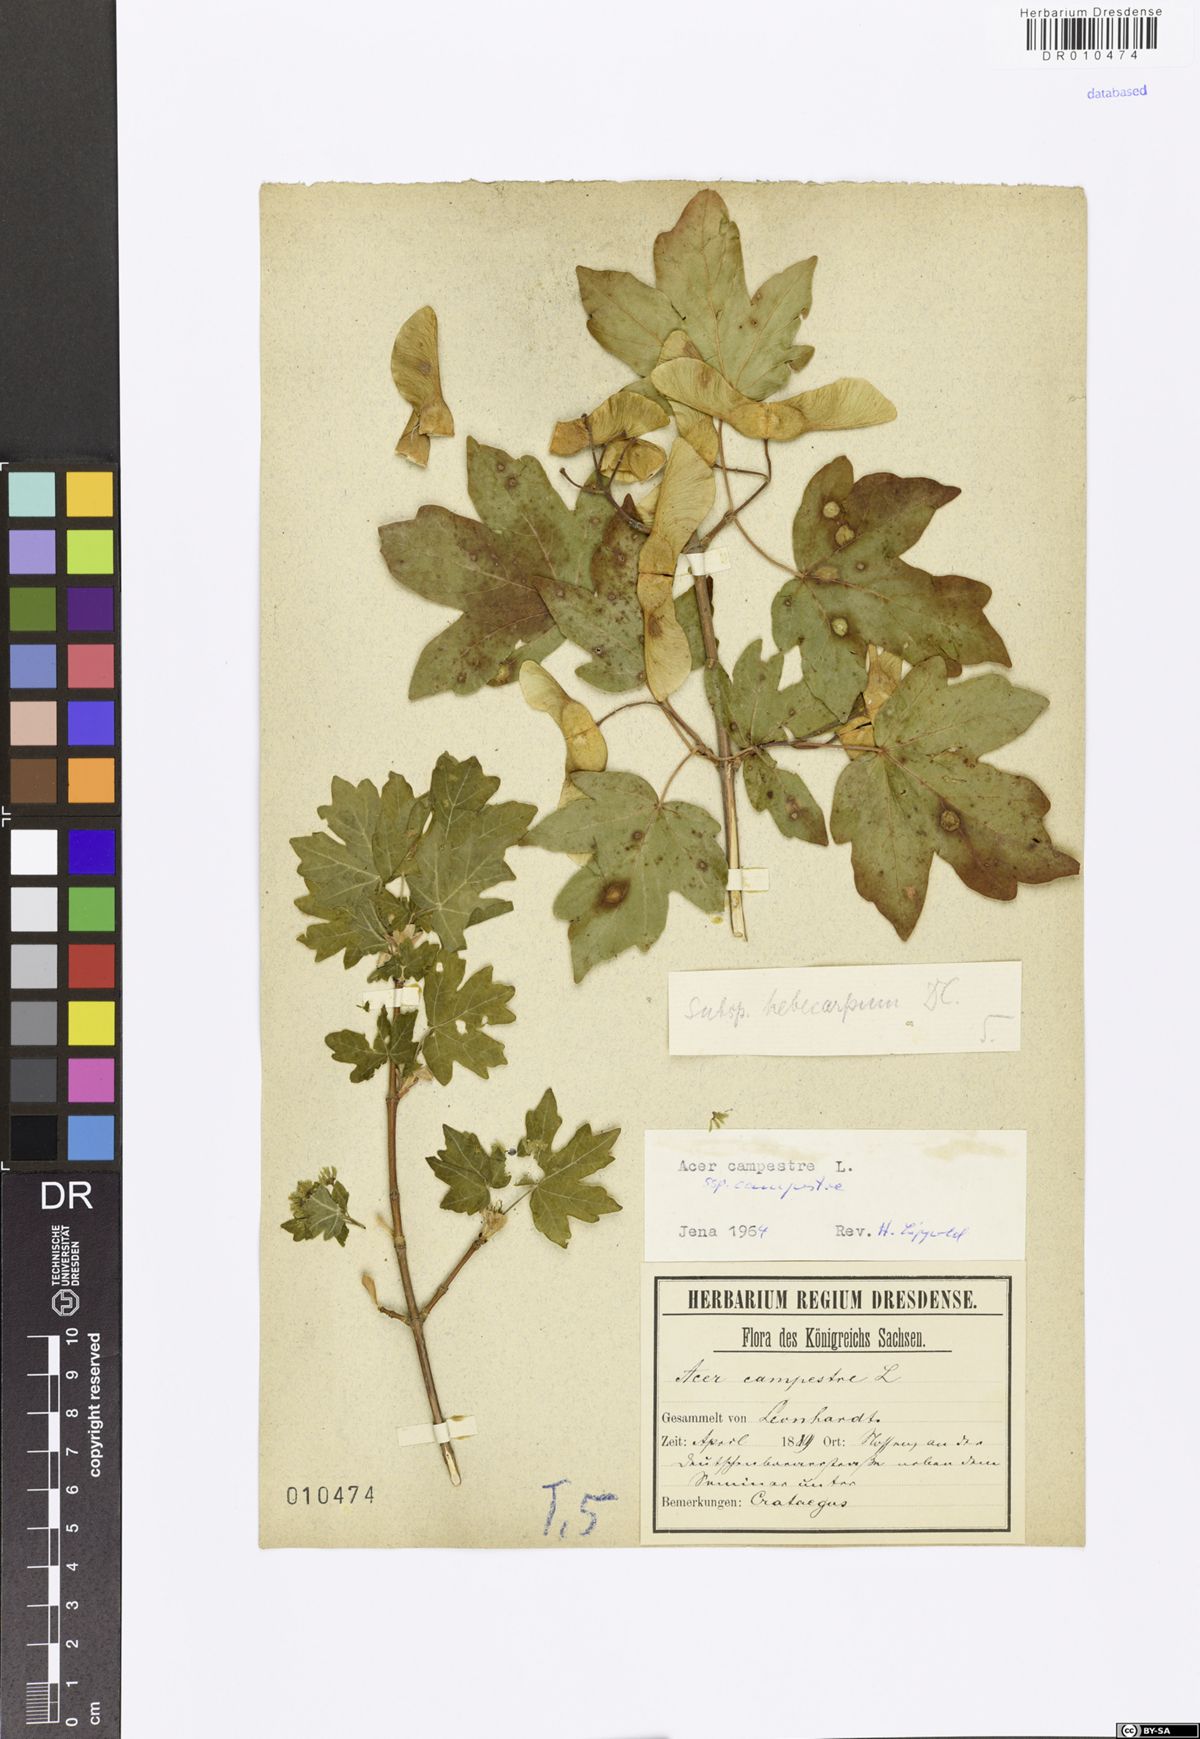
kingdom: Plantae
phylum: Tracheophyta
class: Magnoliopsida
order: Sapindales
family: Sapindaceae
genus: Acer
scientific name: Acer campestre
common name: Field maple
